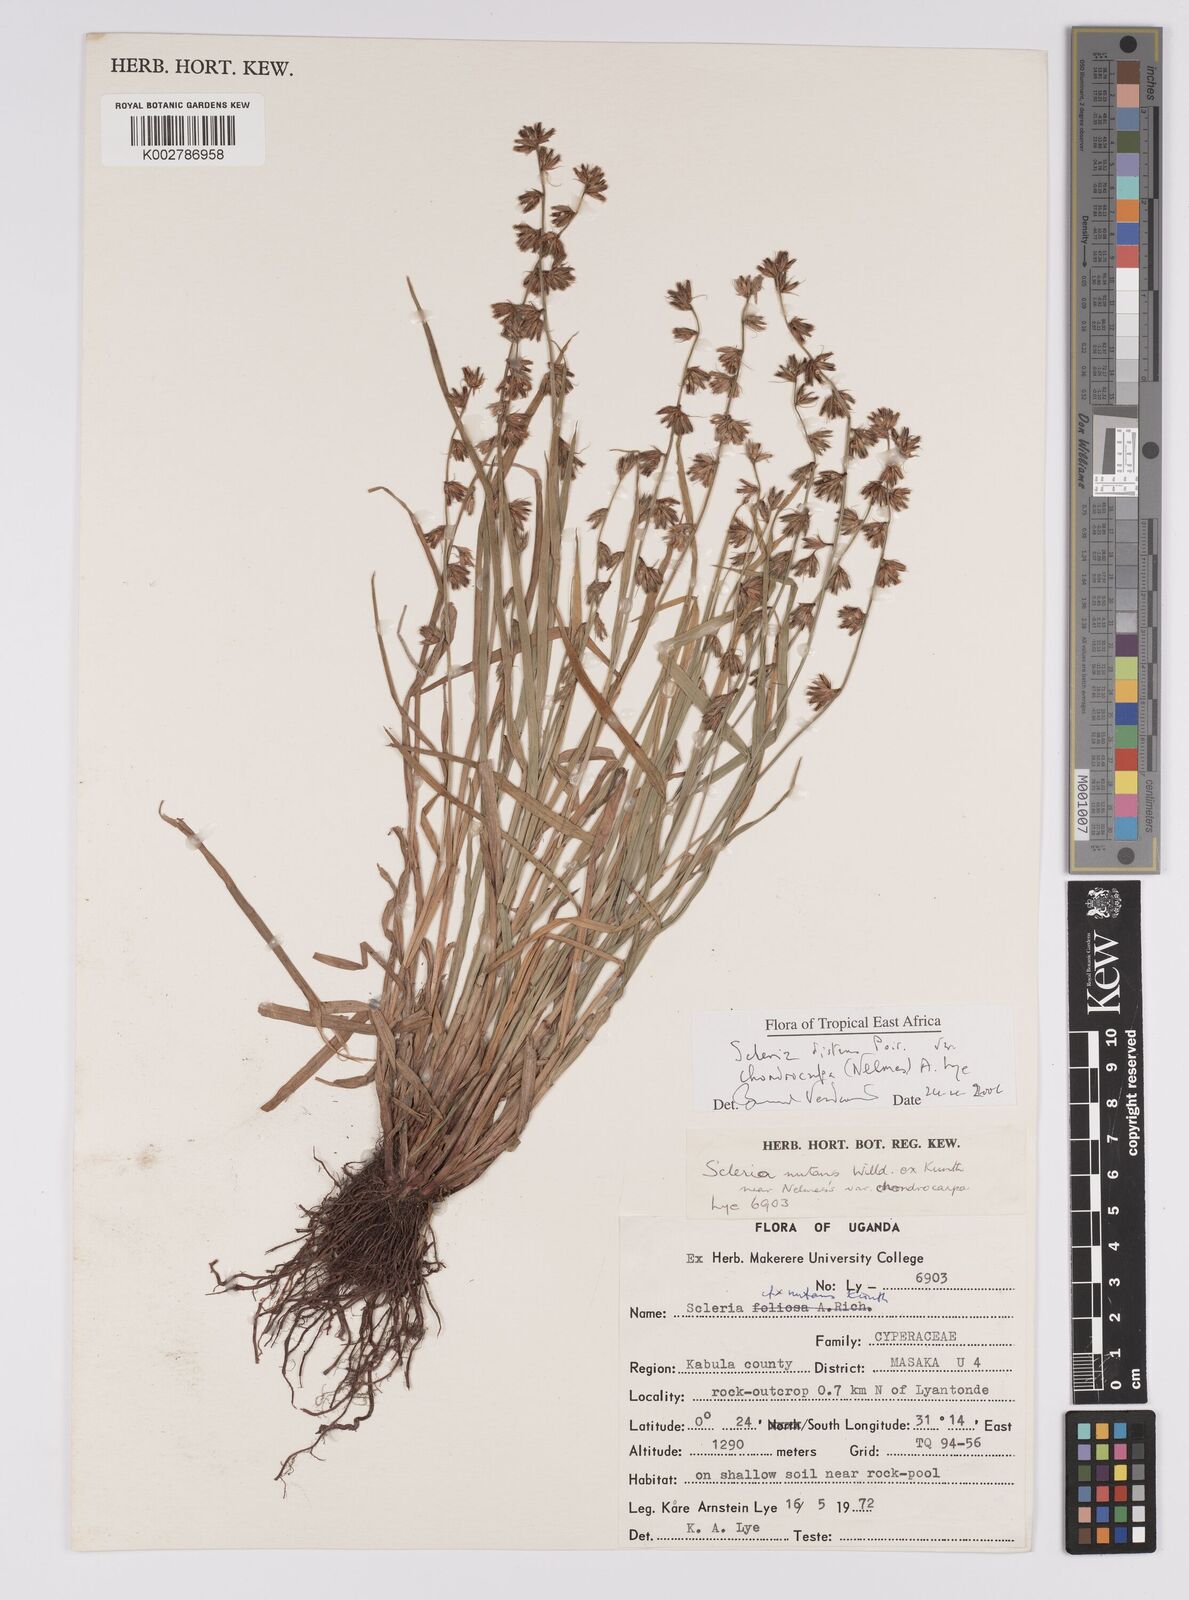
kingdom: Plantae
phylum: Tracheophyta
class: Liliopsida
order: Poales
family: Cyperaceae
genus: Scleria
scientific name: Scleria distans
